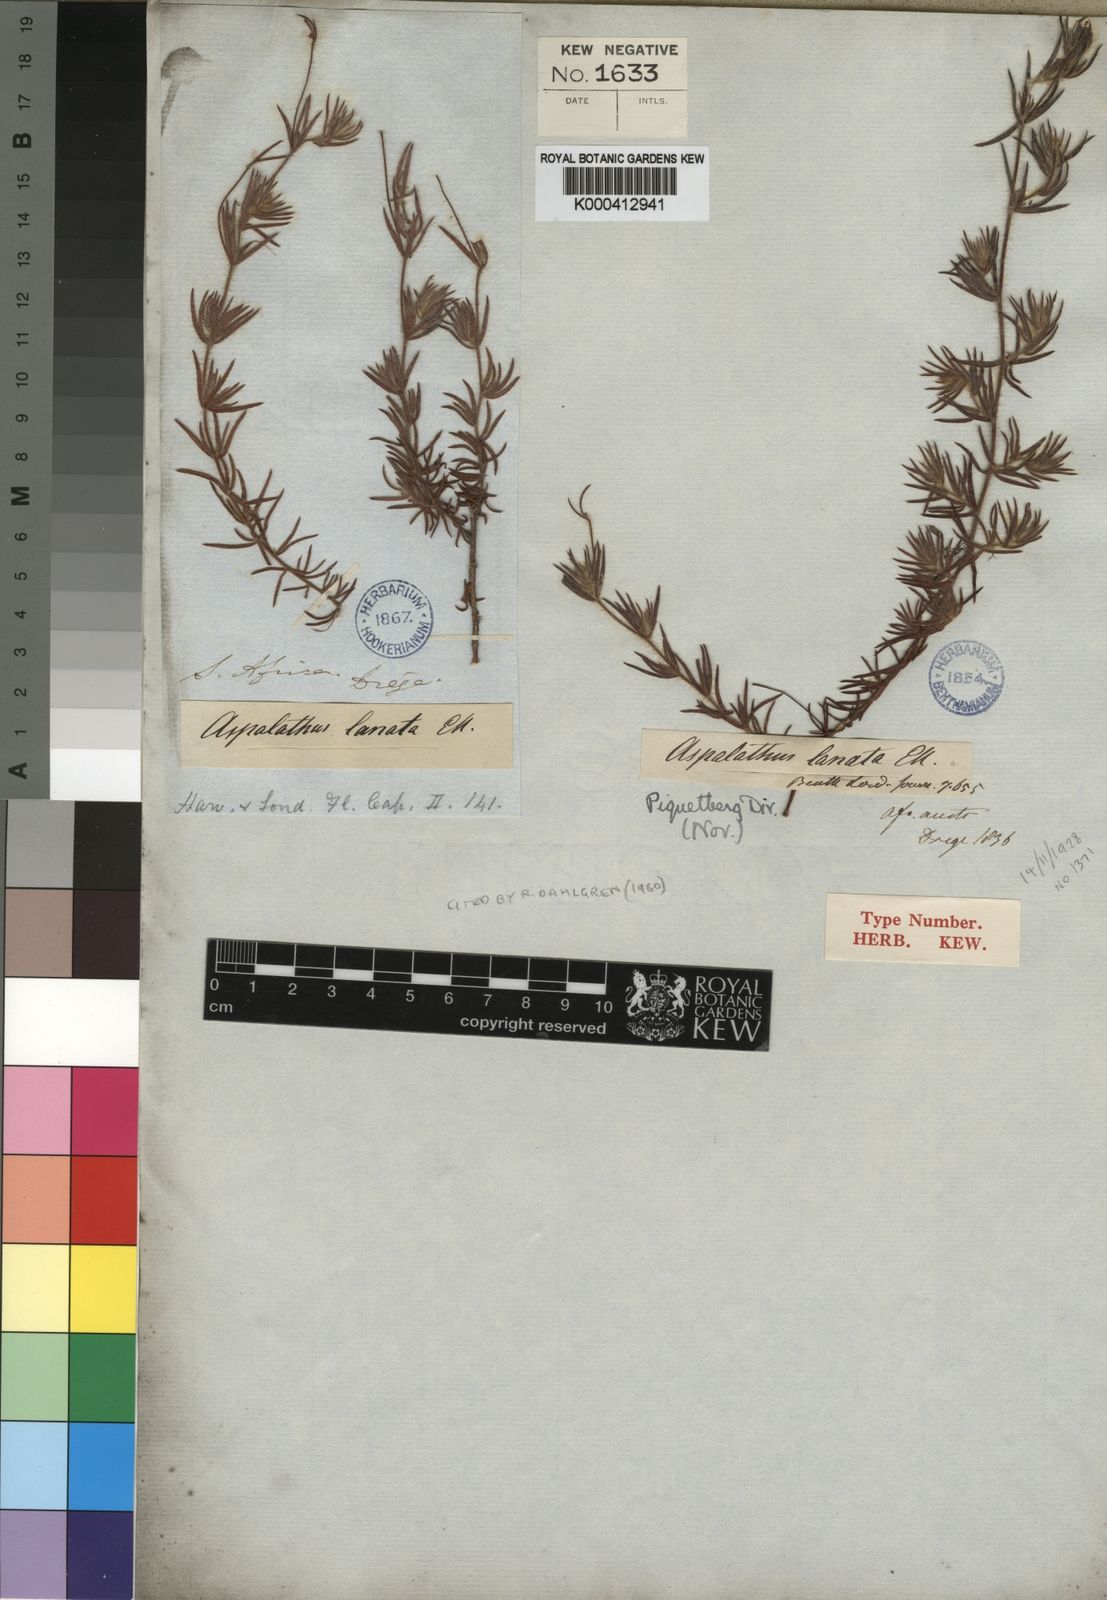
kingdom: Plantae
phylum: Tracheophyta
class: Magnoliopsida
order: Fabales
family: Fabaceae
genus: Aspalathus
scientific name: Aspalathus lanata
